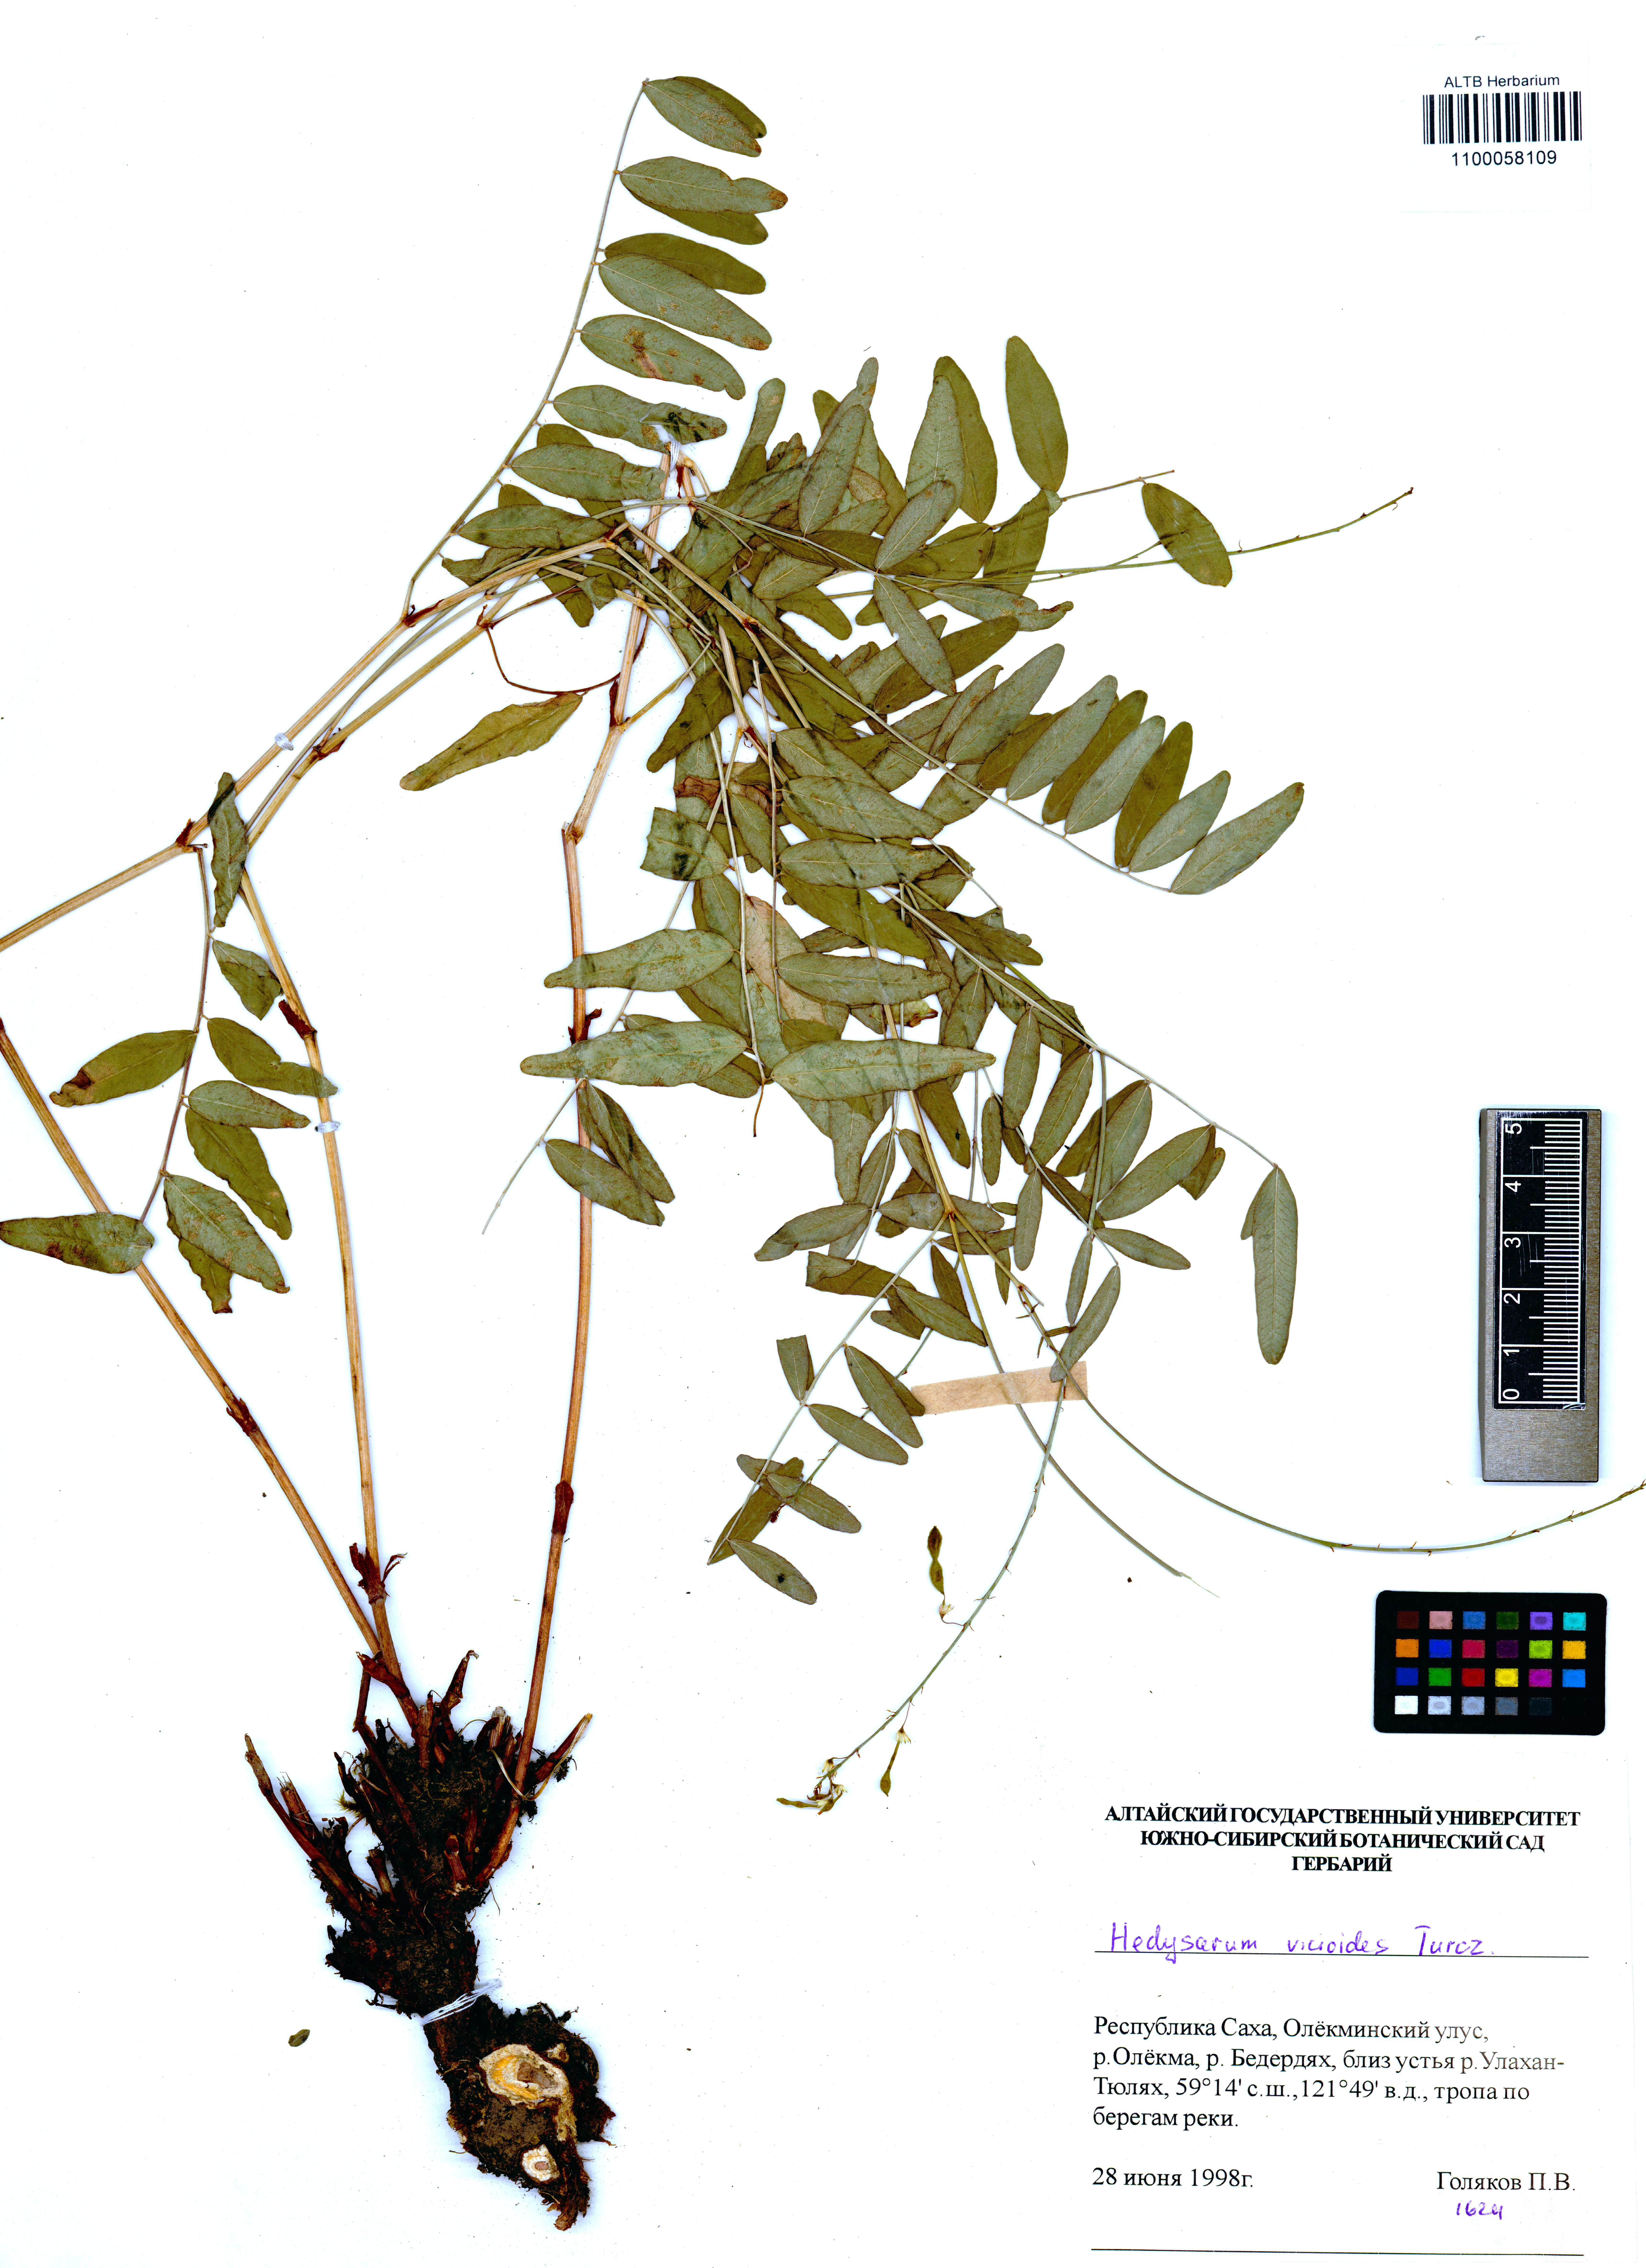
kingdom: Plantae
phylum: Tracheophyta
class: Magnoliopsida
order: Fabales
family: Fabaceae
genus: Hedysarum
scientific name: Hedysarum vicioides
